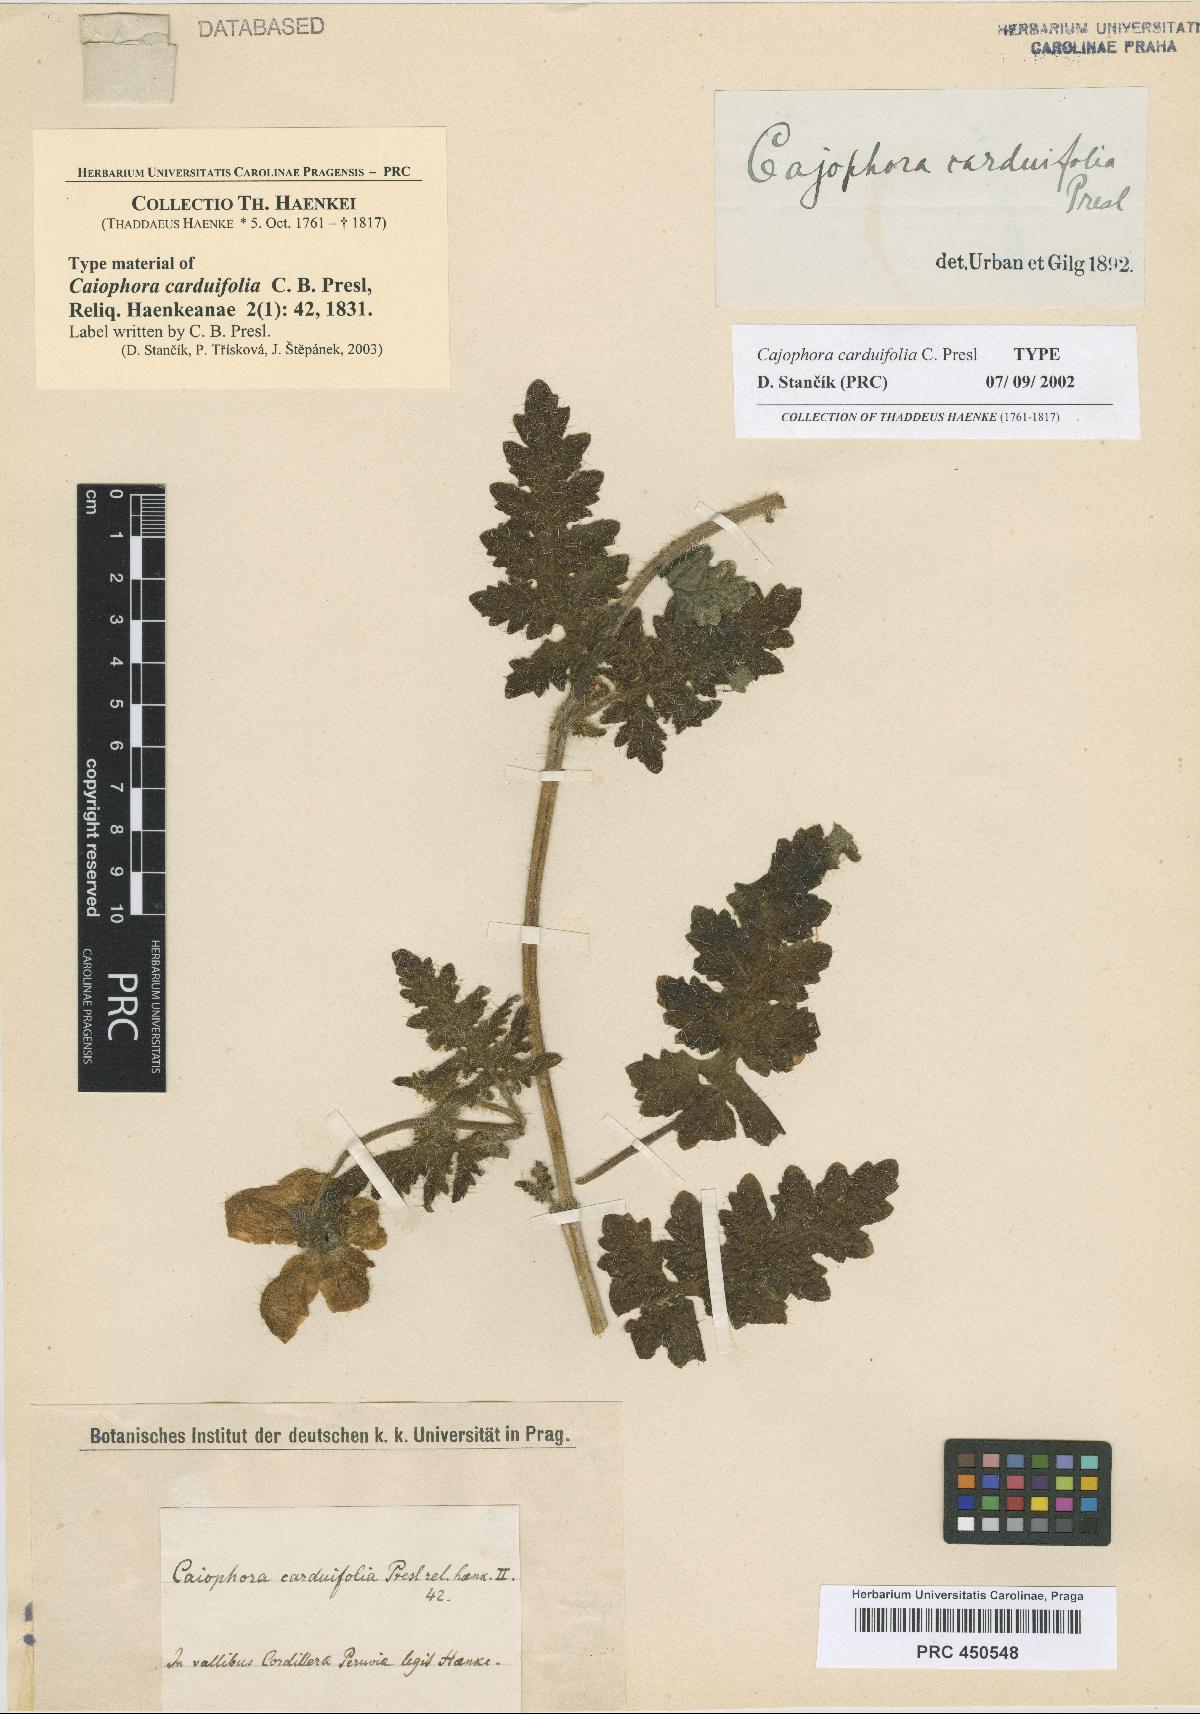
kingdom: Plantae
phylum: Tracheophyta
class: Magnoliopsida
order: Cornales
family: Loasaceae
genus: Caiophora
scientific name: Caiophora carduifolia
